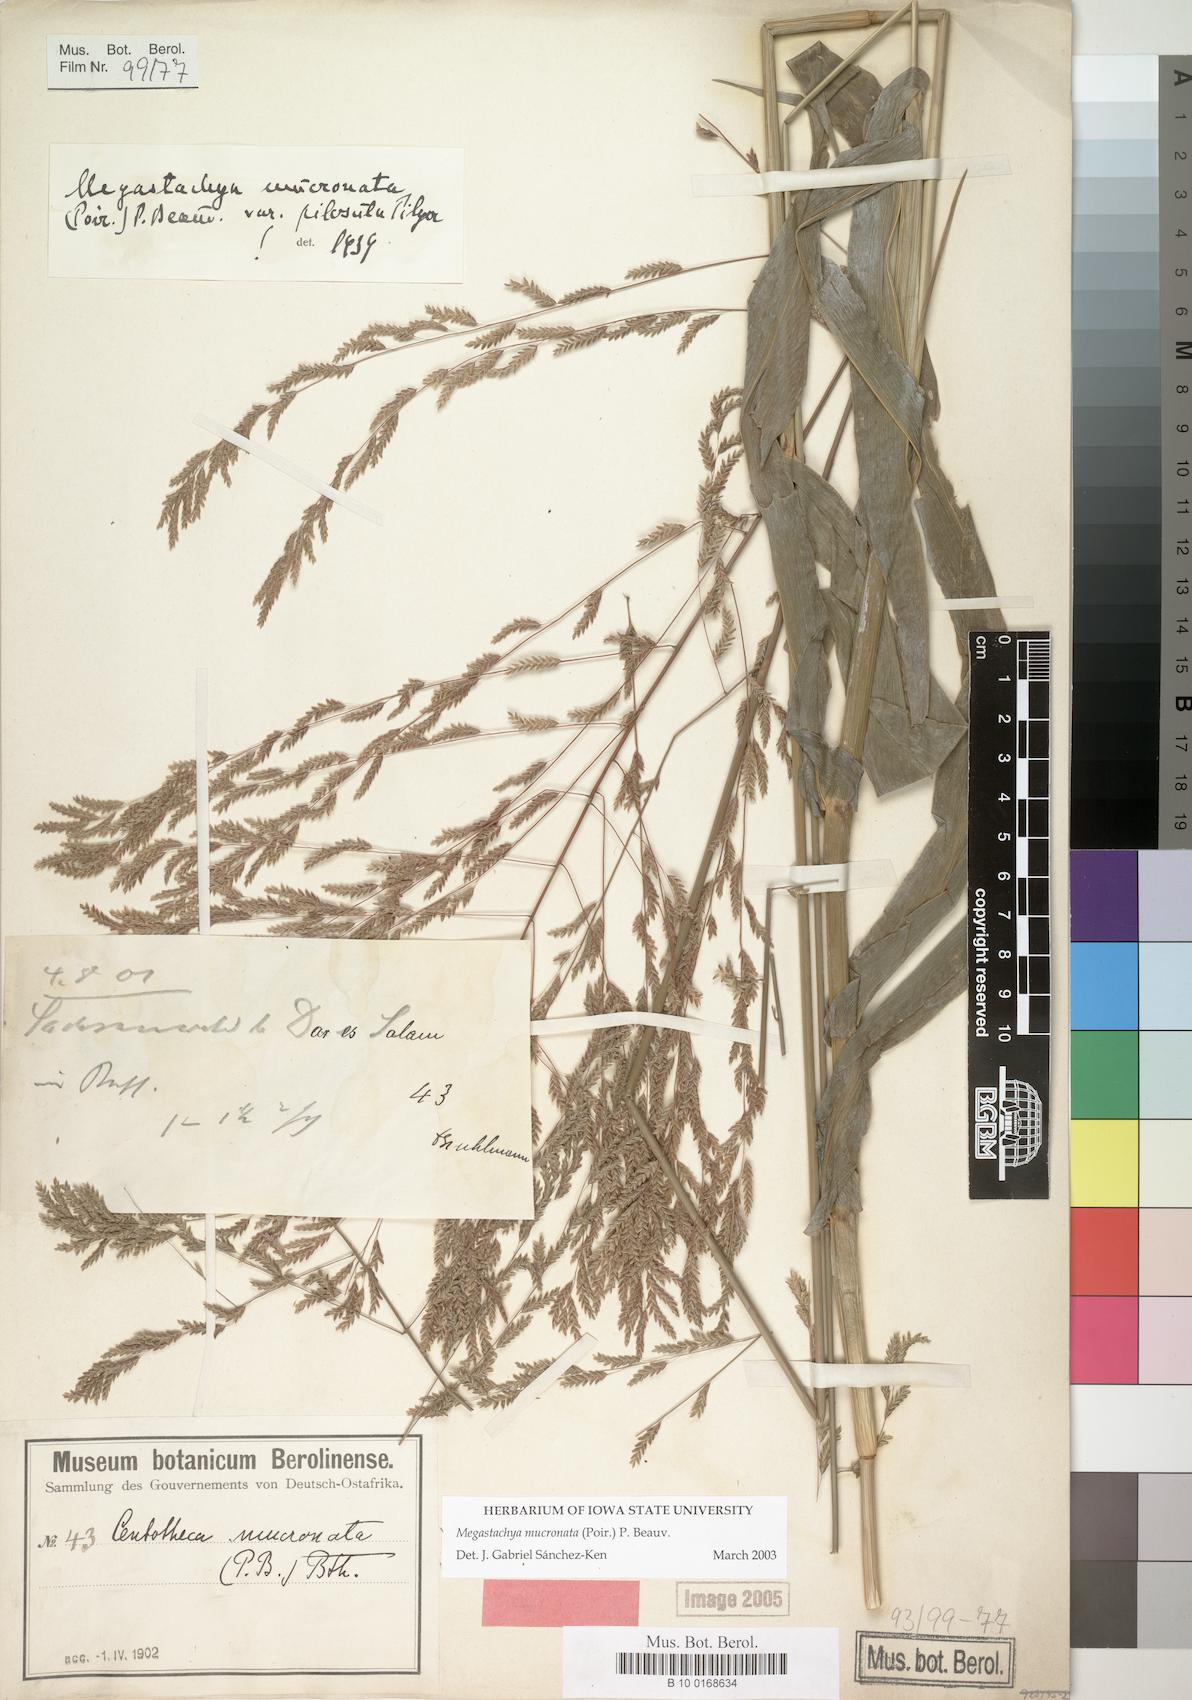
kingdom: Plantae
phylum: Tracheophyta
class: Liliopsida
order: Poales
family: Poaceae
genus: Megastachya
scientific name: Megastachya mucronata
